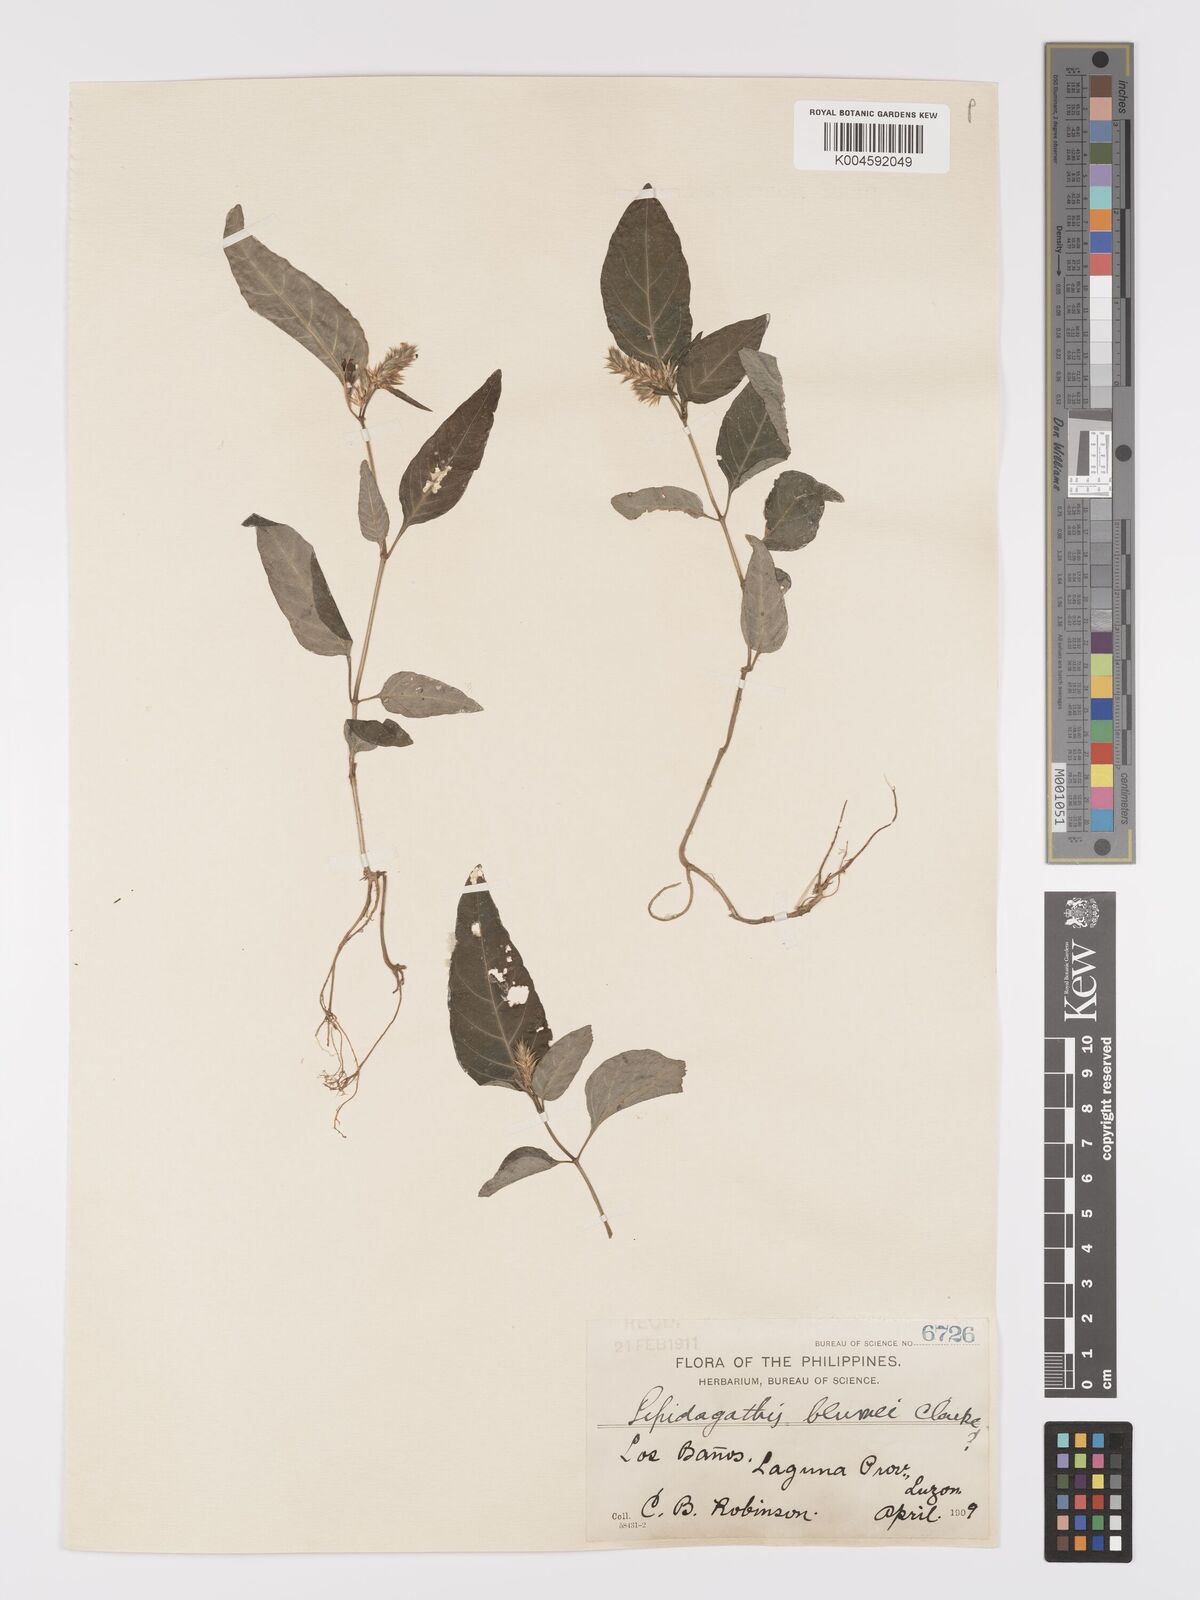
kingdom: Plantae
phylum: Tracheophyta
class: Magnoliopsida
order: Lamiales
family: Acanthaceae
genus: Lepidagathis
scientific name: Lepidagathis
